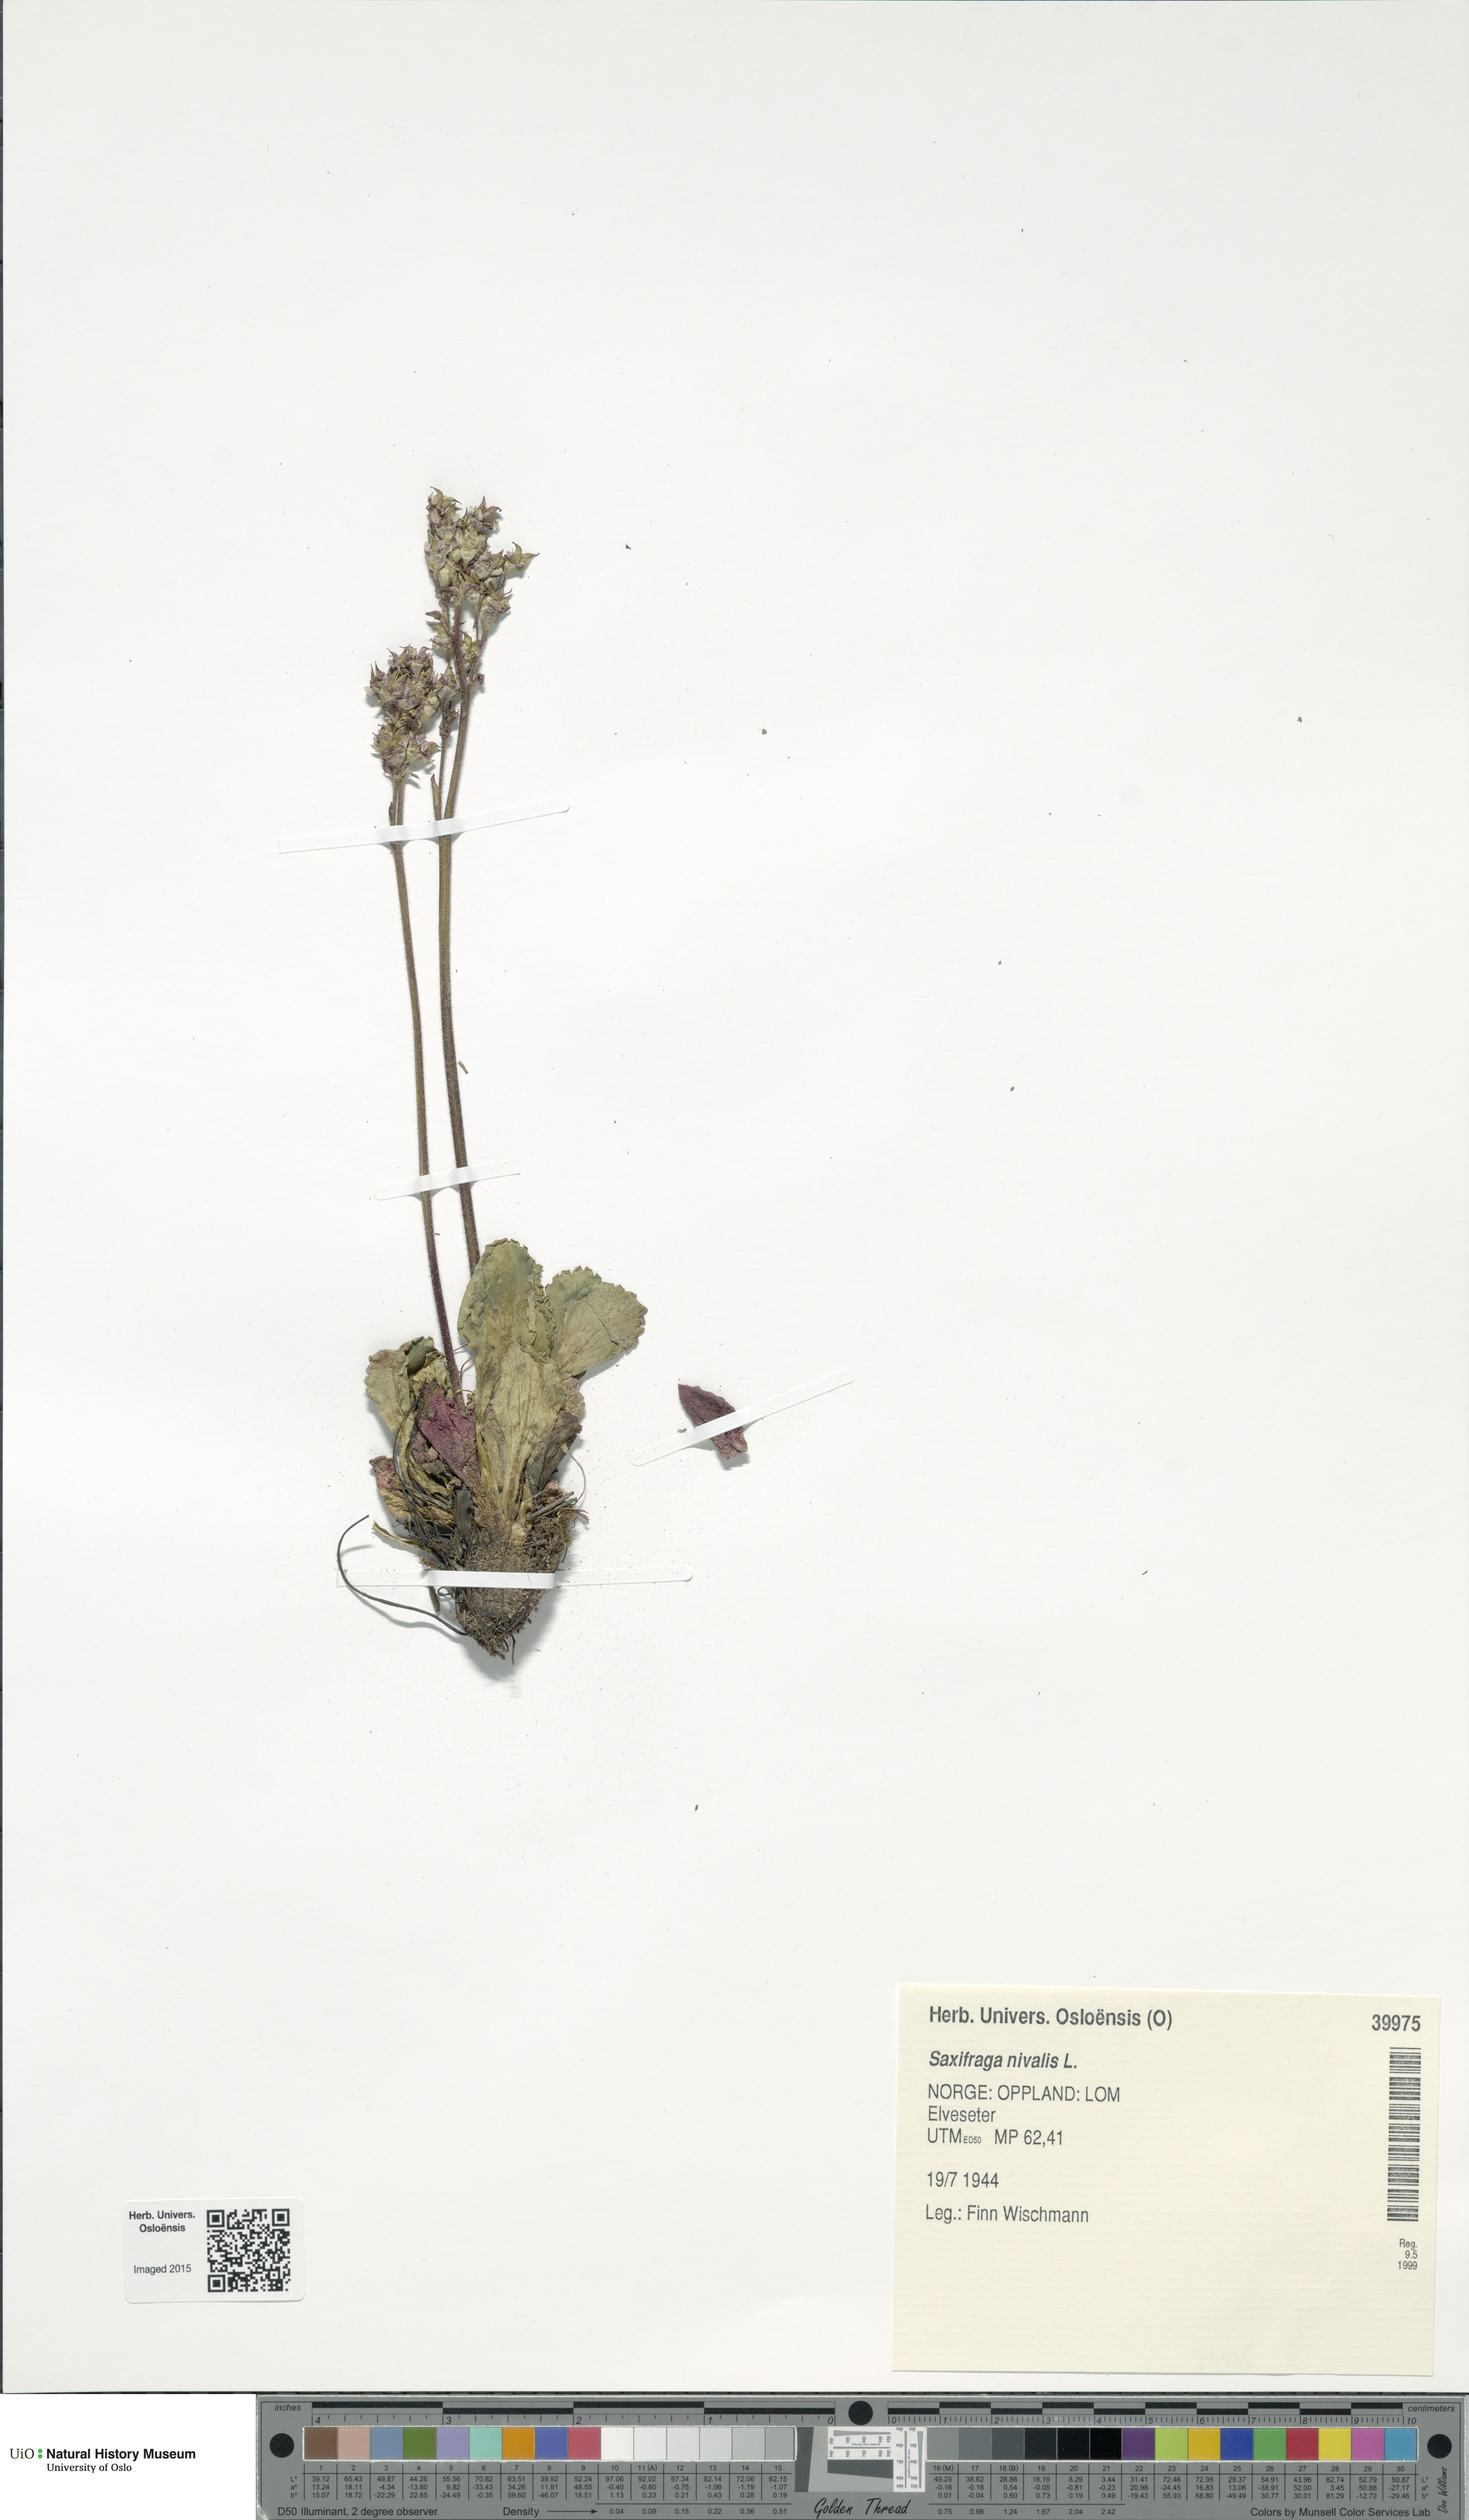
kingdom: Plantae
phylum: Tracheophyta
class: Magnoliopsida
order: Saxifragales
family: Saxifragaceae
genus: Micranthes
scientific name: Micranthes nivalis
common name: Alpine saxifrage
